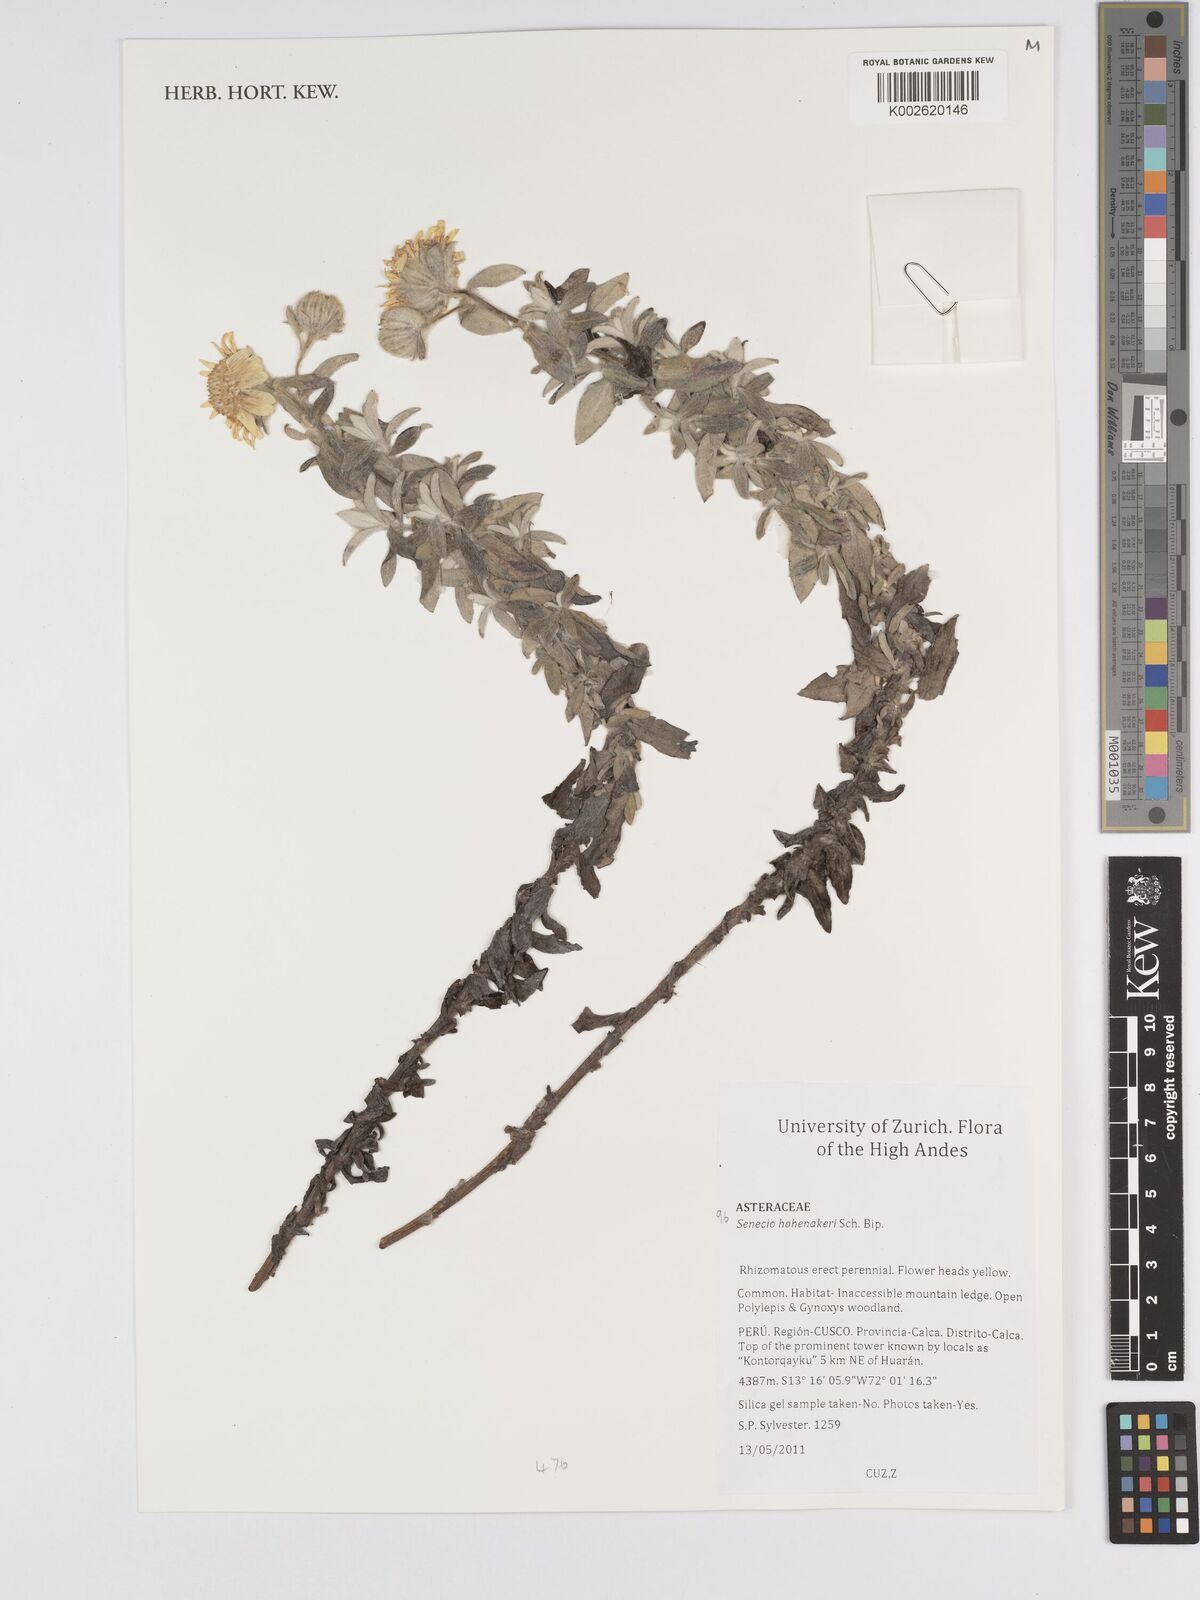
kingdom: Plantae
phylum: Tracheophyta
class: Magnoliopsida
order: Asterales
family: Asteraceae
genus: Senecio
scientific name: Senecio hohenackeri
